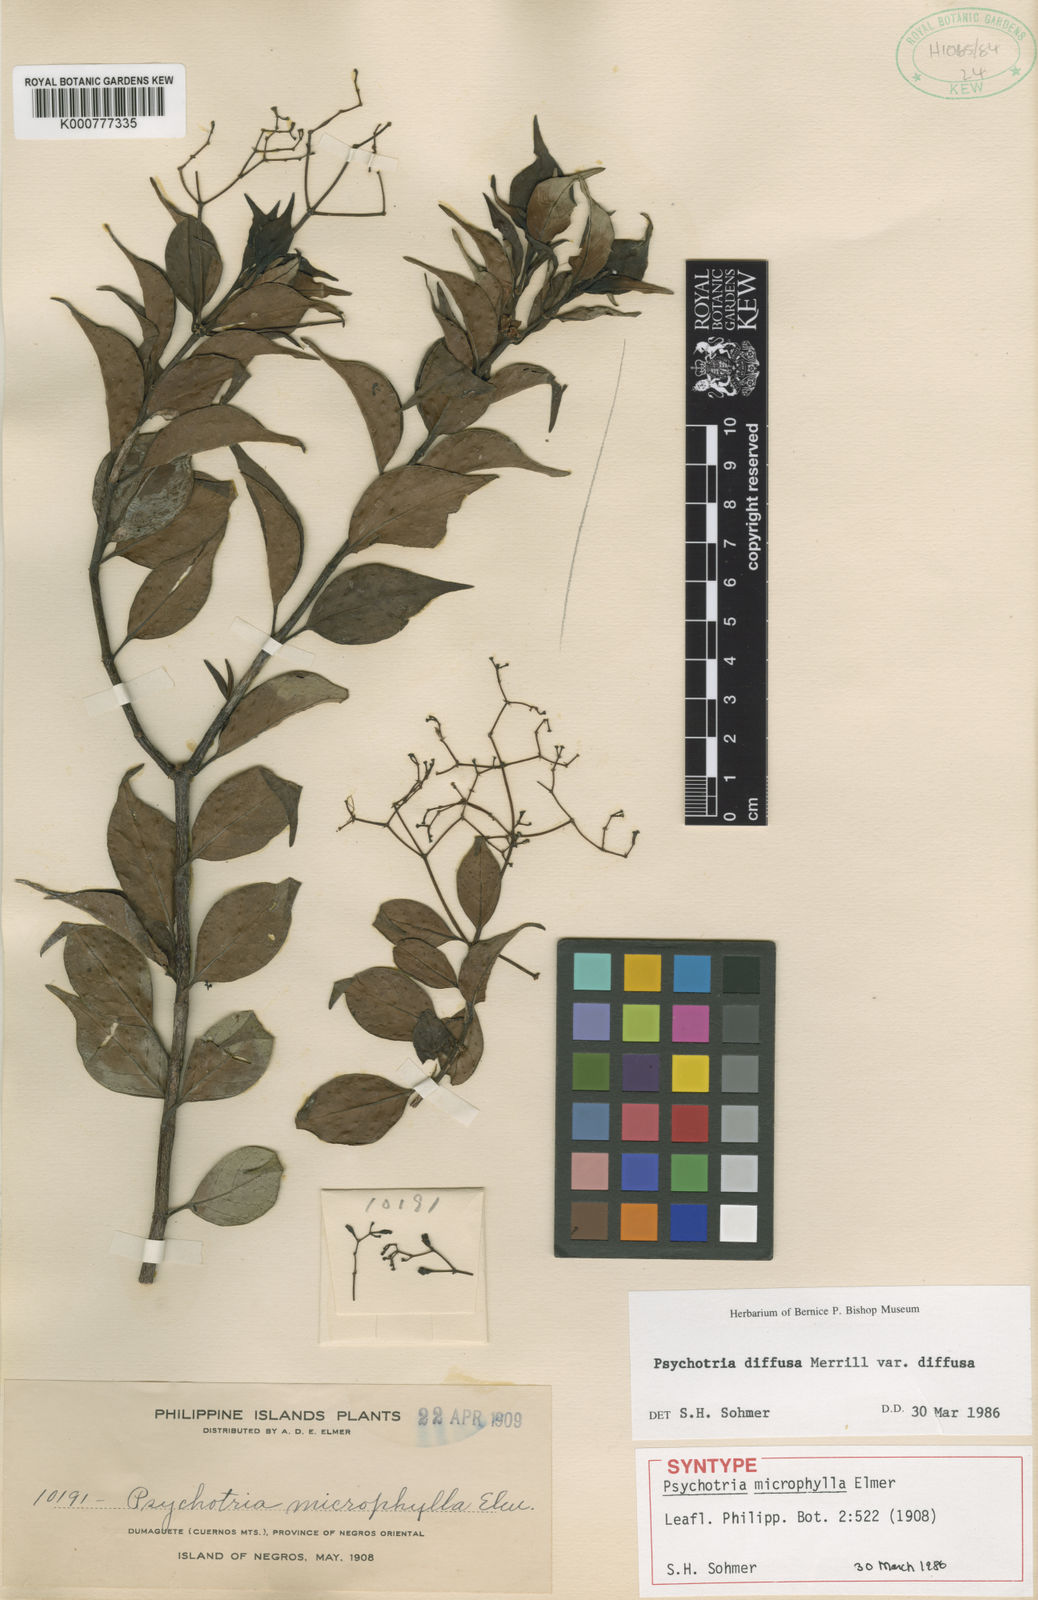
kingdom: Plantae
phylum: Tracheophyta
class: Magnoliopsida
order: Gentianales
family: Rubiaceae
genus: Psychotria
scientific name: Psychotria diffusa
